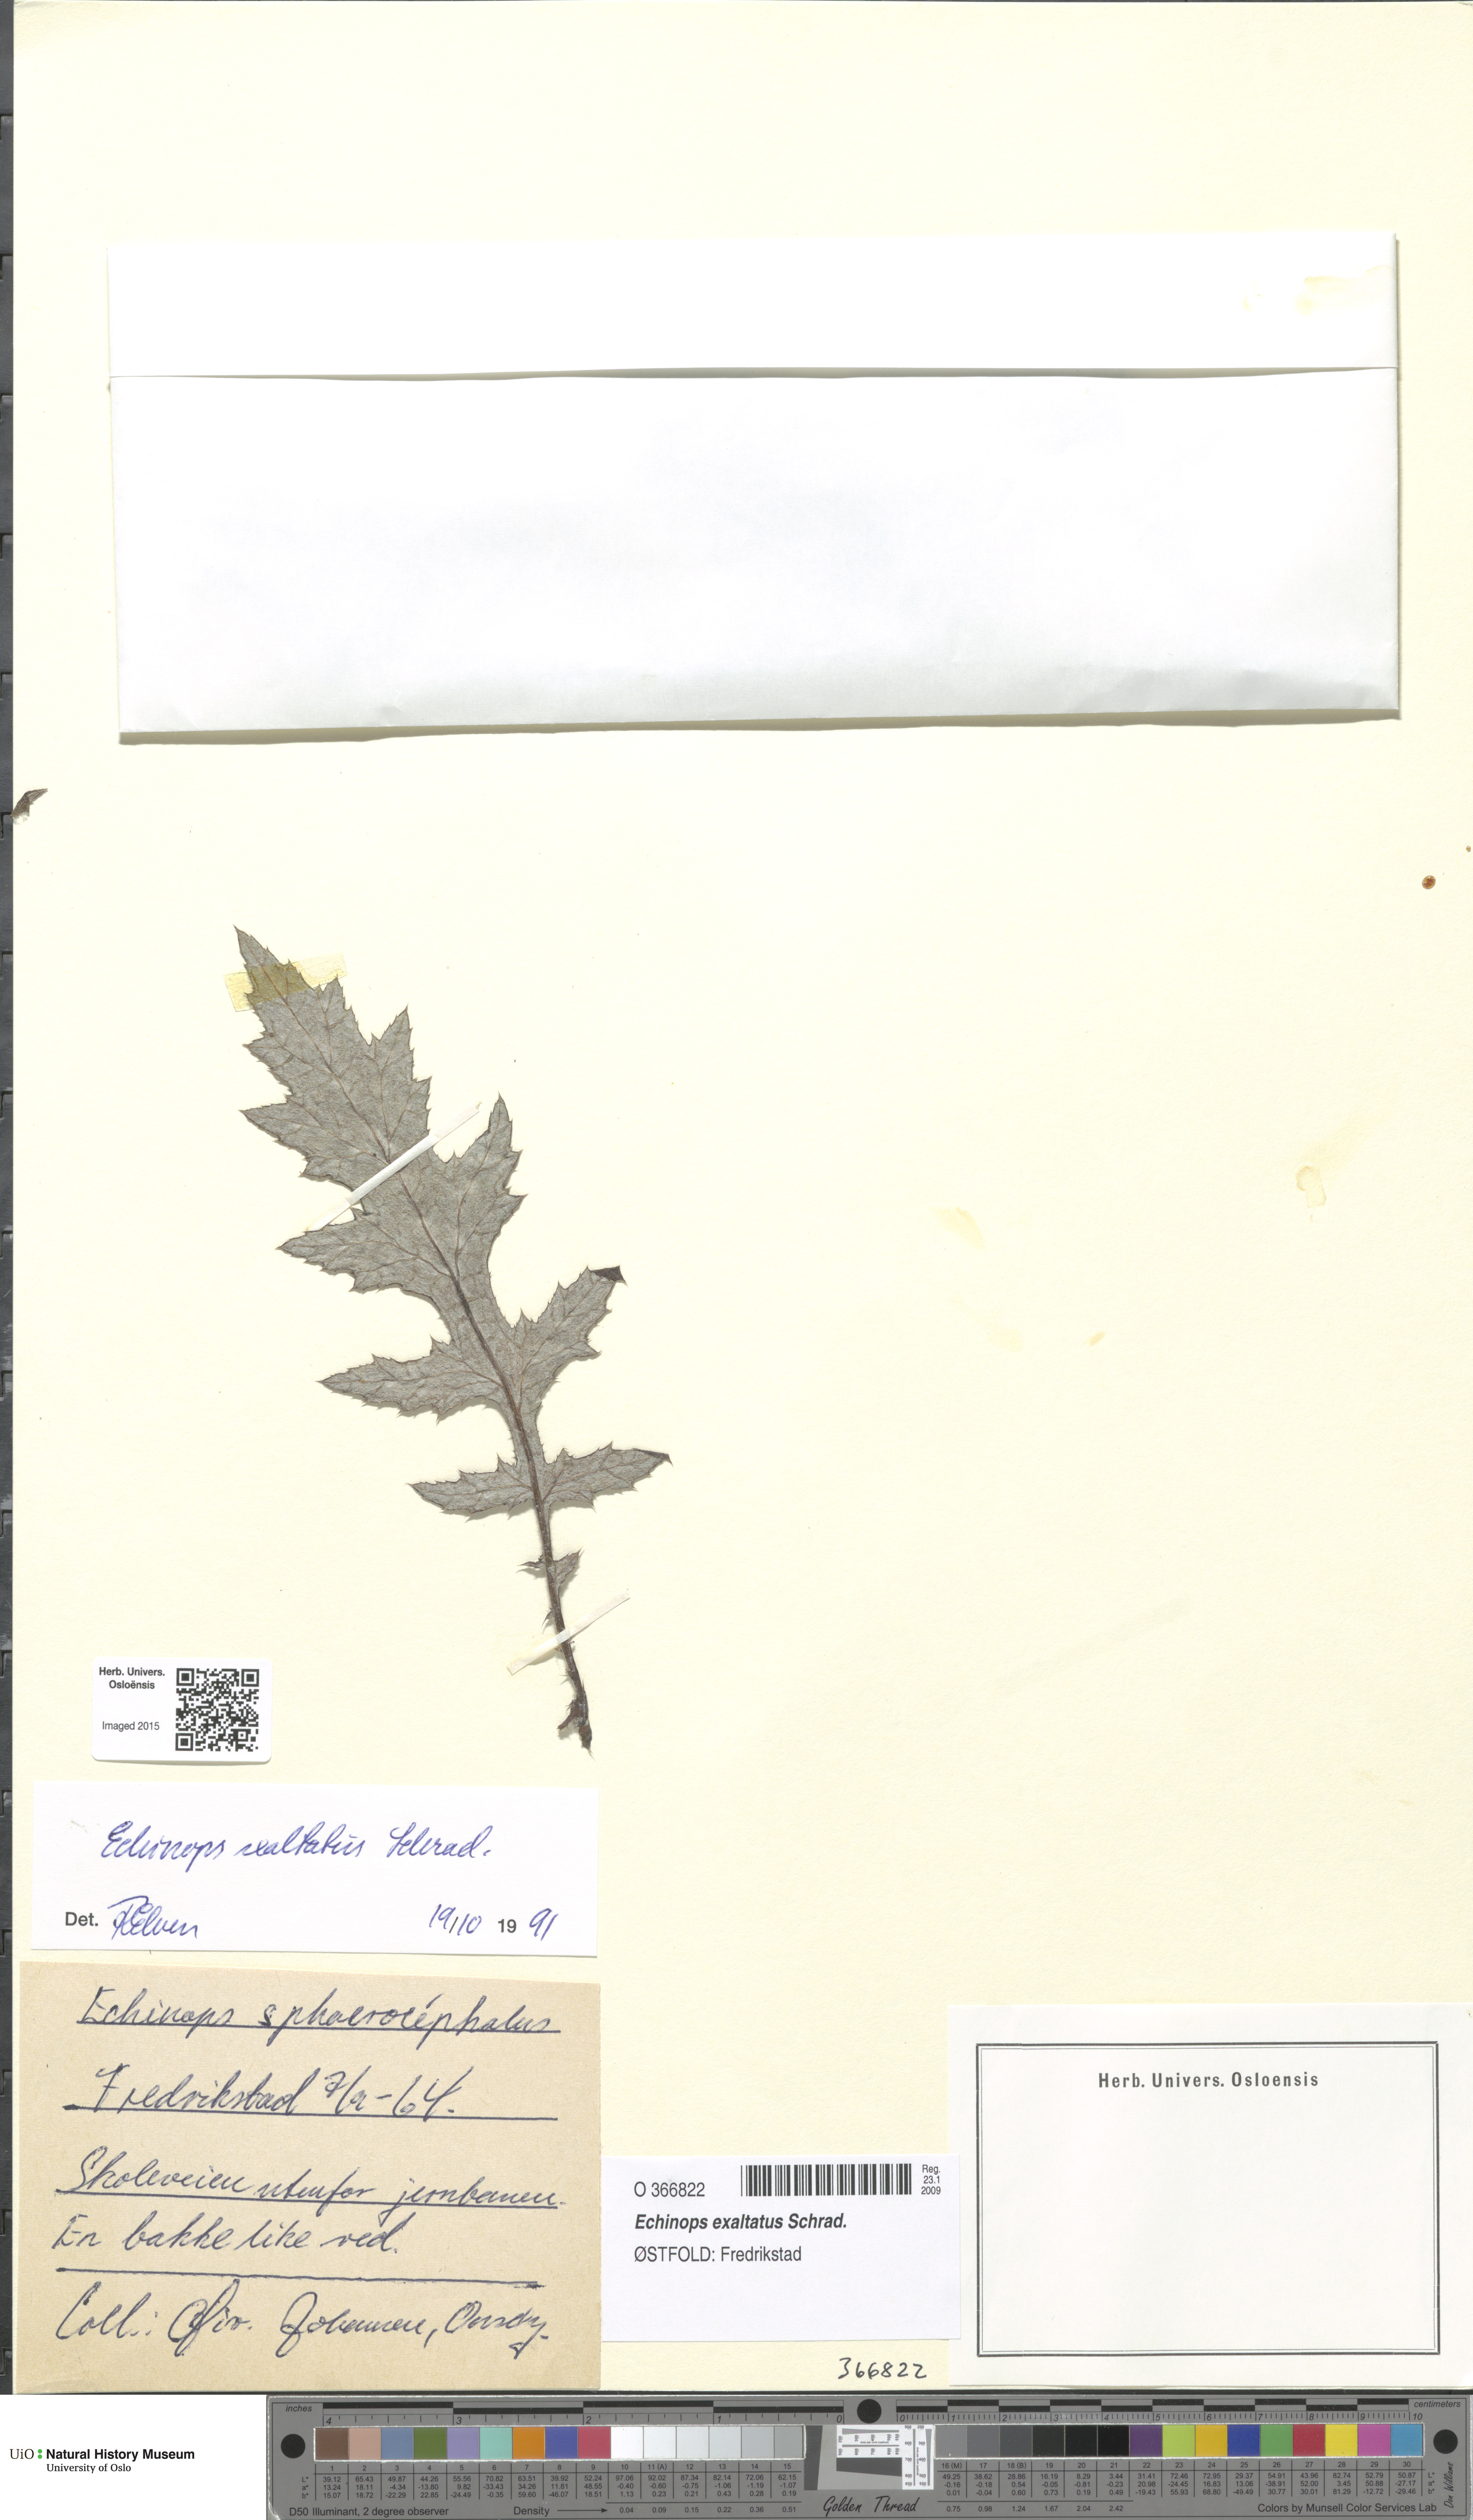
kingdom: Plantae
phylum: Tracheophyta
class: Magnoliopsida
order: Asterales
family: Asteraceae
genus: Echinops
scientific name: Echinops exaltatus
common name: Globe-thistle
